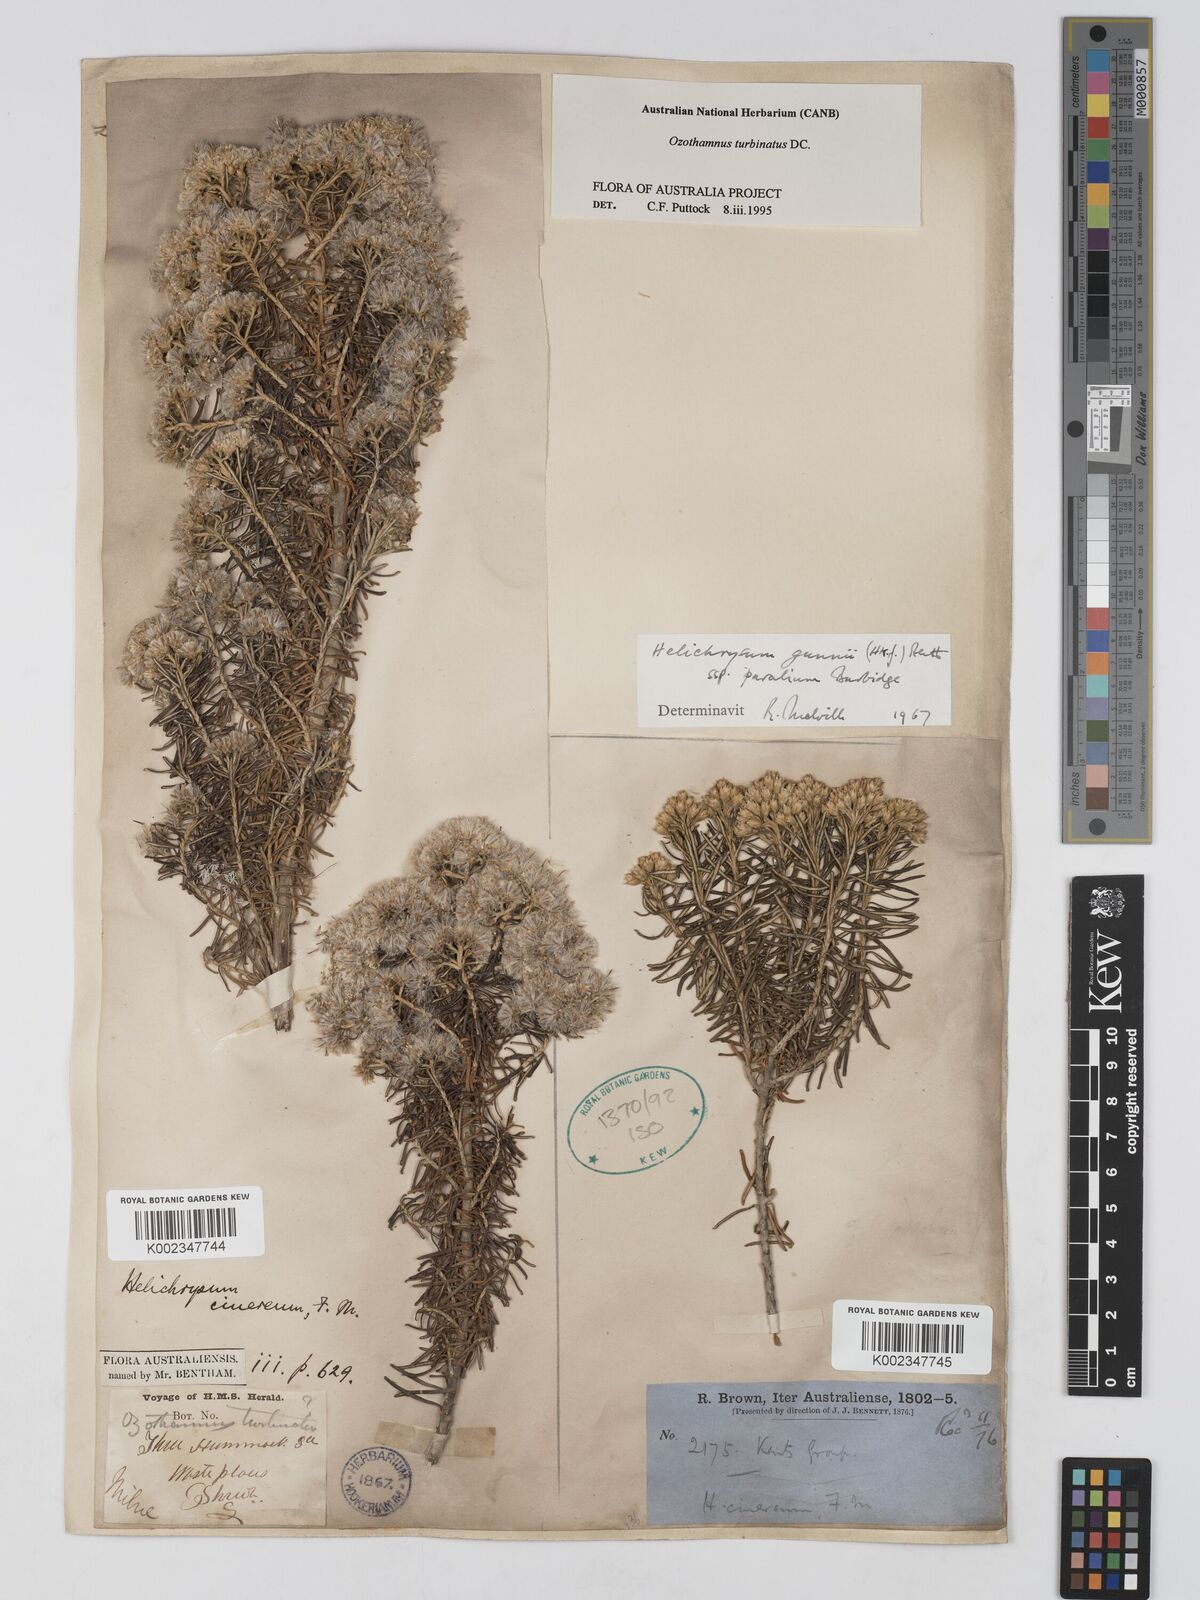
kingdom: Plantae
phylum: Tracheophyta
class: Magnoliopsida
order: Asterales
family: Asteraceae
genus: Ozothamnus
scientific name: Ozothamnus cinereus
